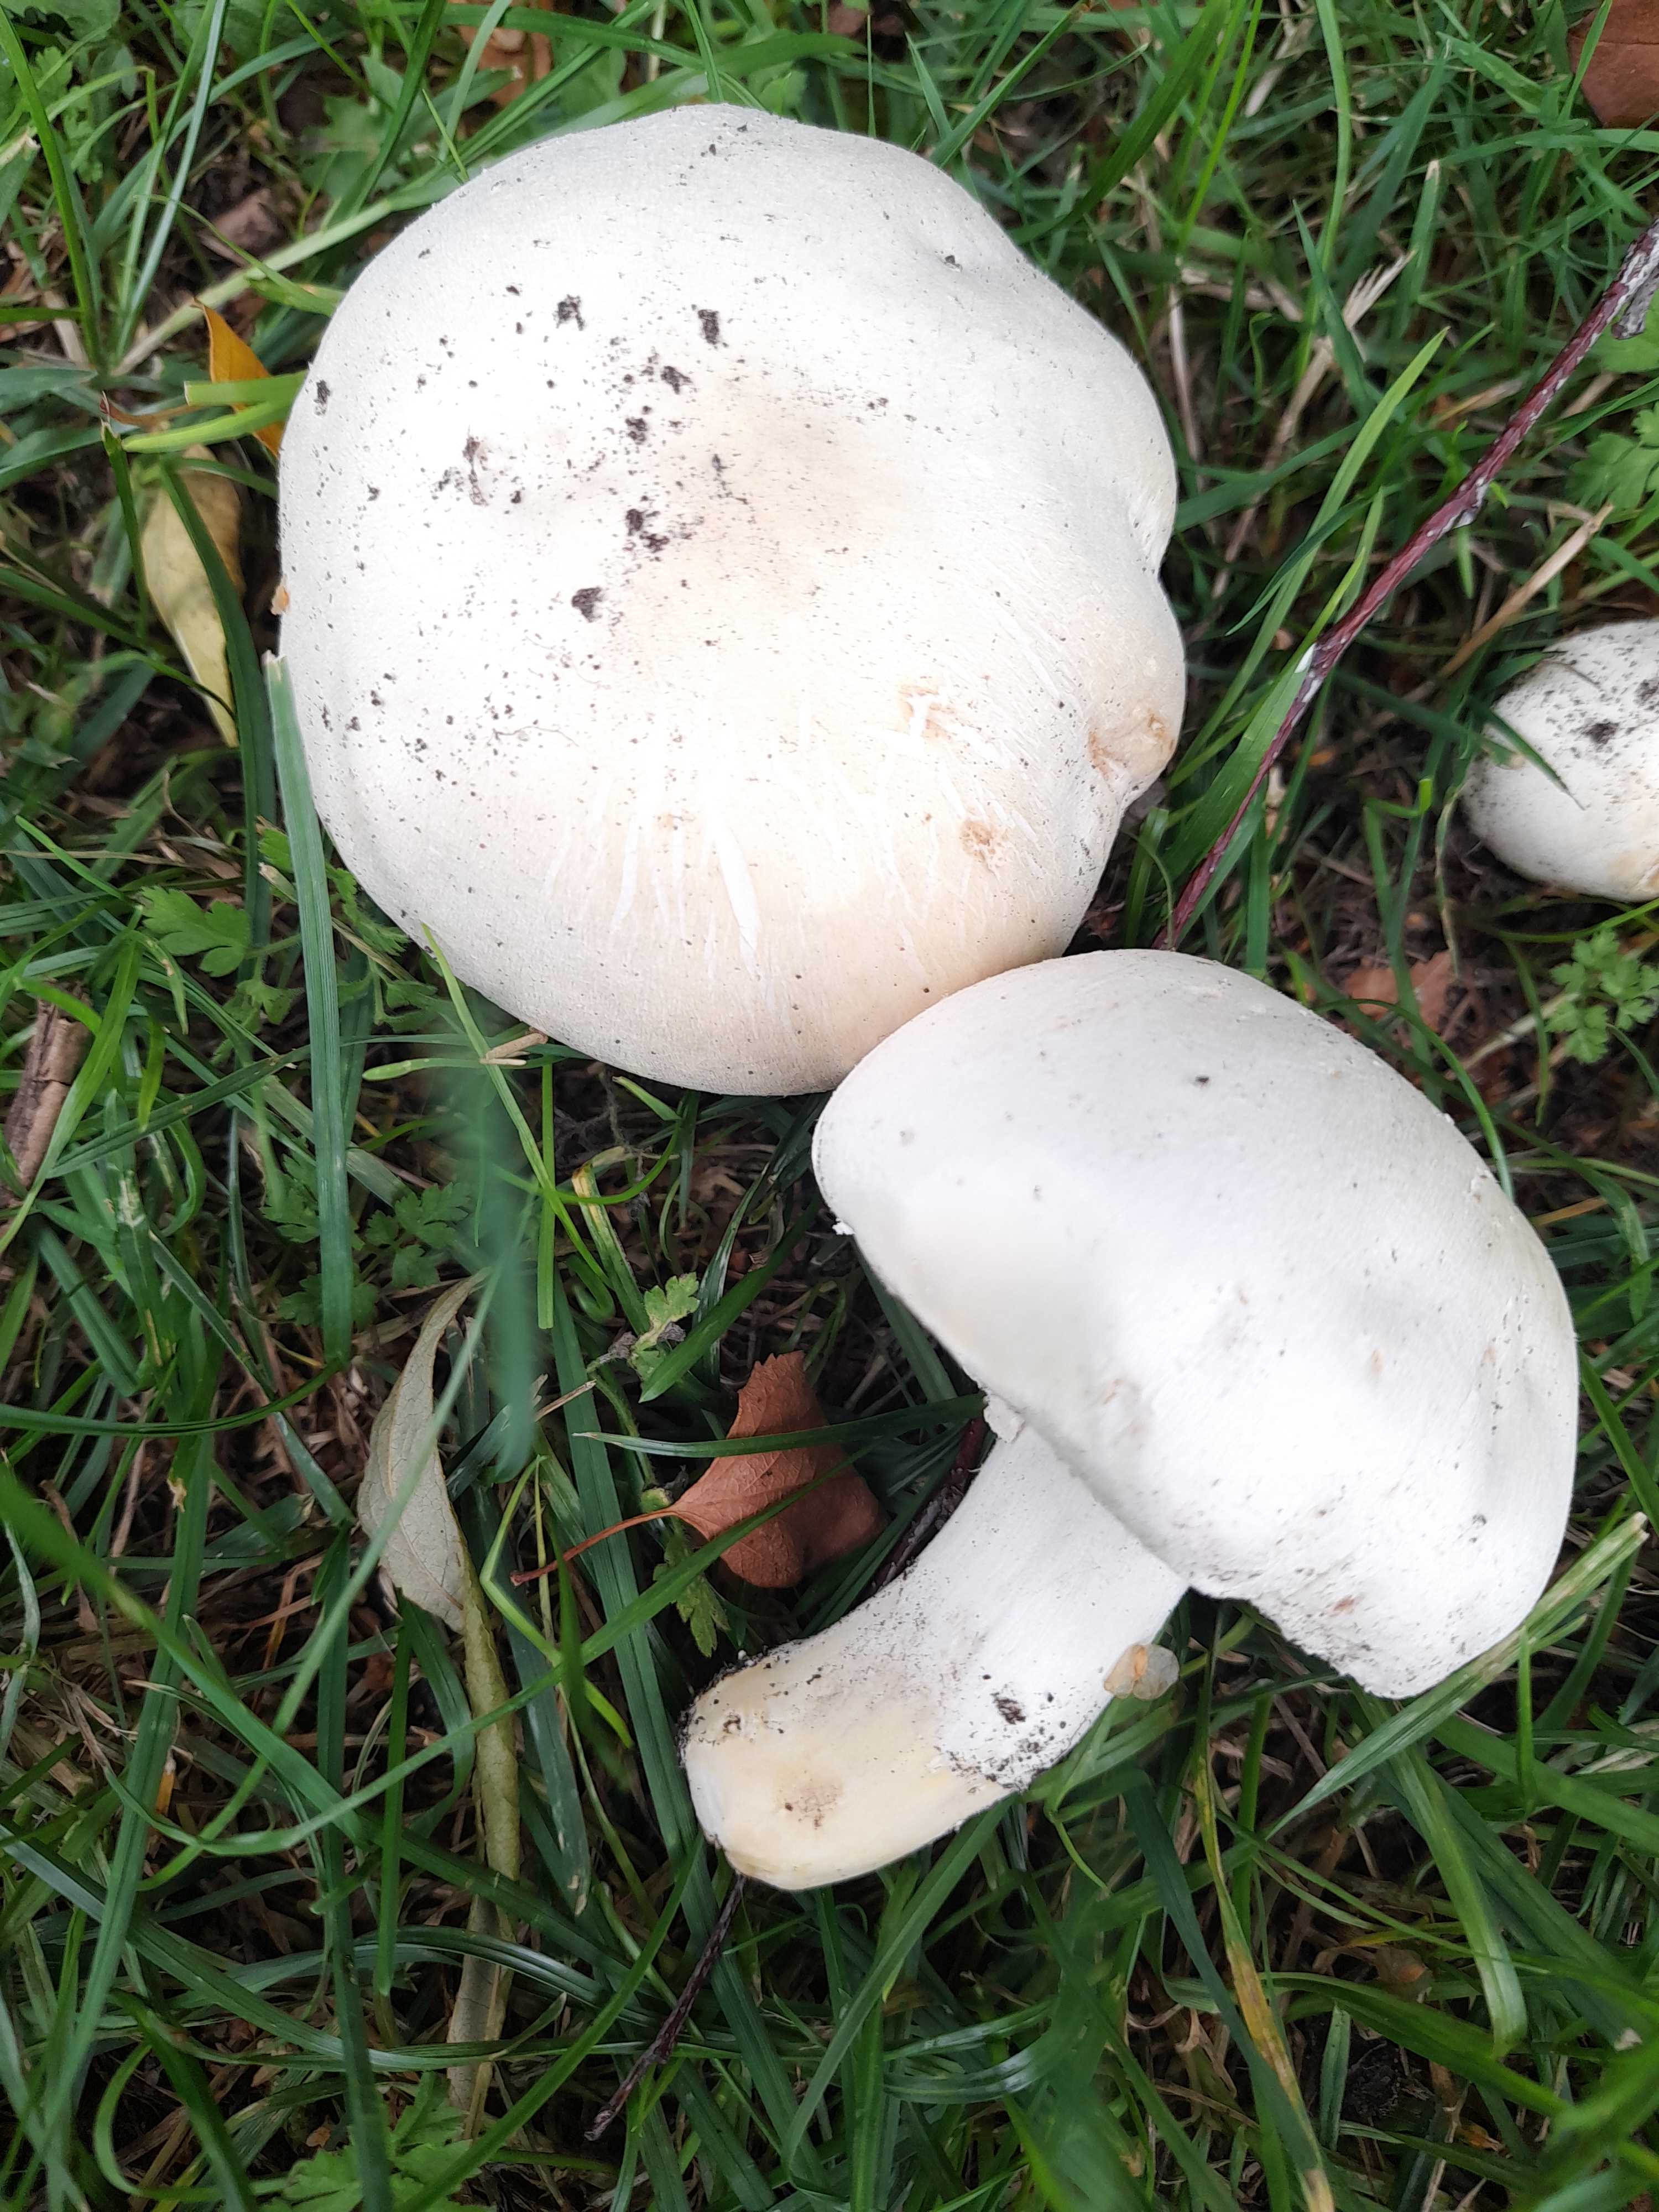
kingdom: Fungi
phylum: Basidiomycota
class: Agaricomycetes
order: Agaricales
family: Agaricaceae
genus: Agaricus
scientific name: Agaricus xanthodermus
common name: karbol-champignon
